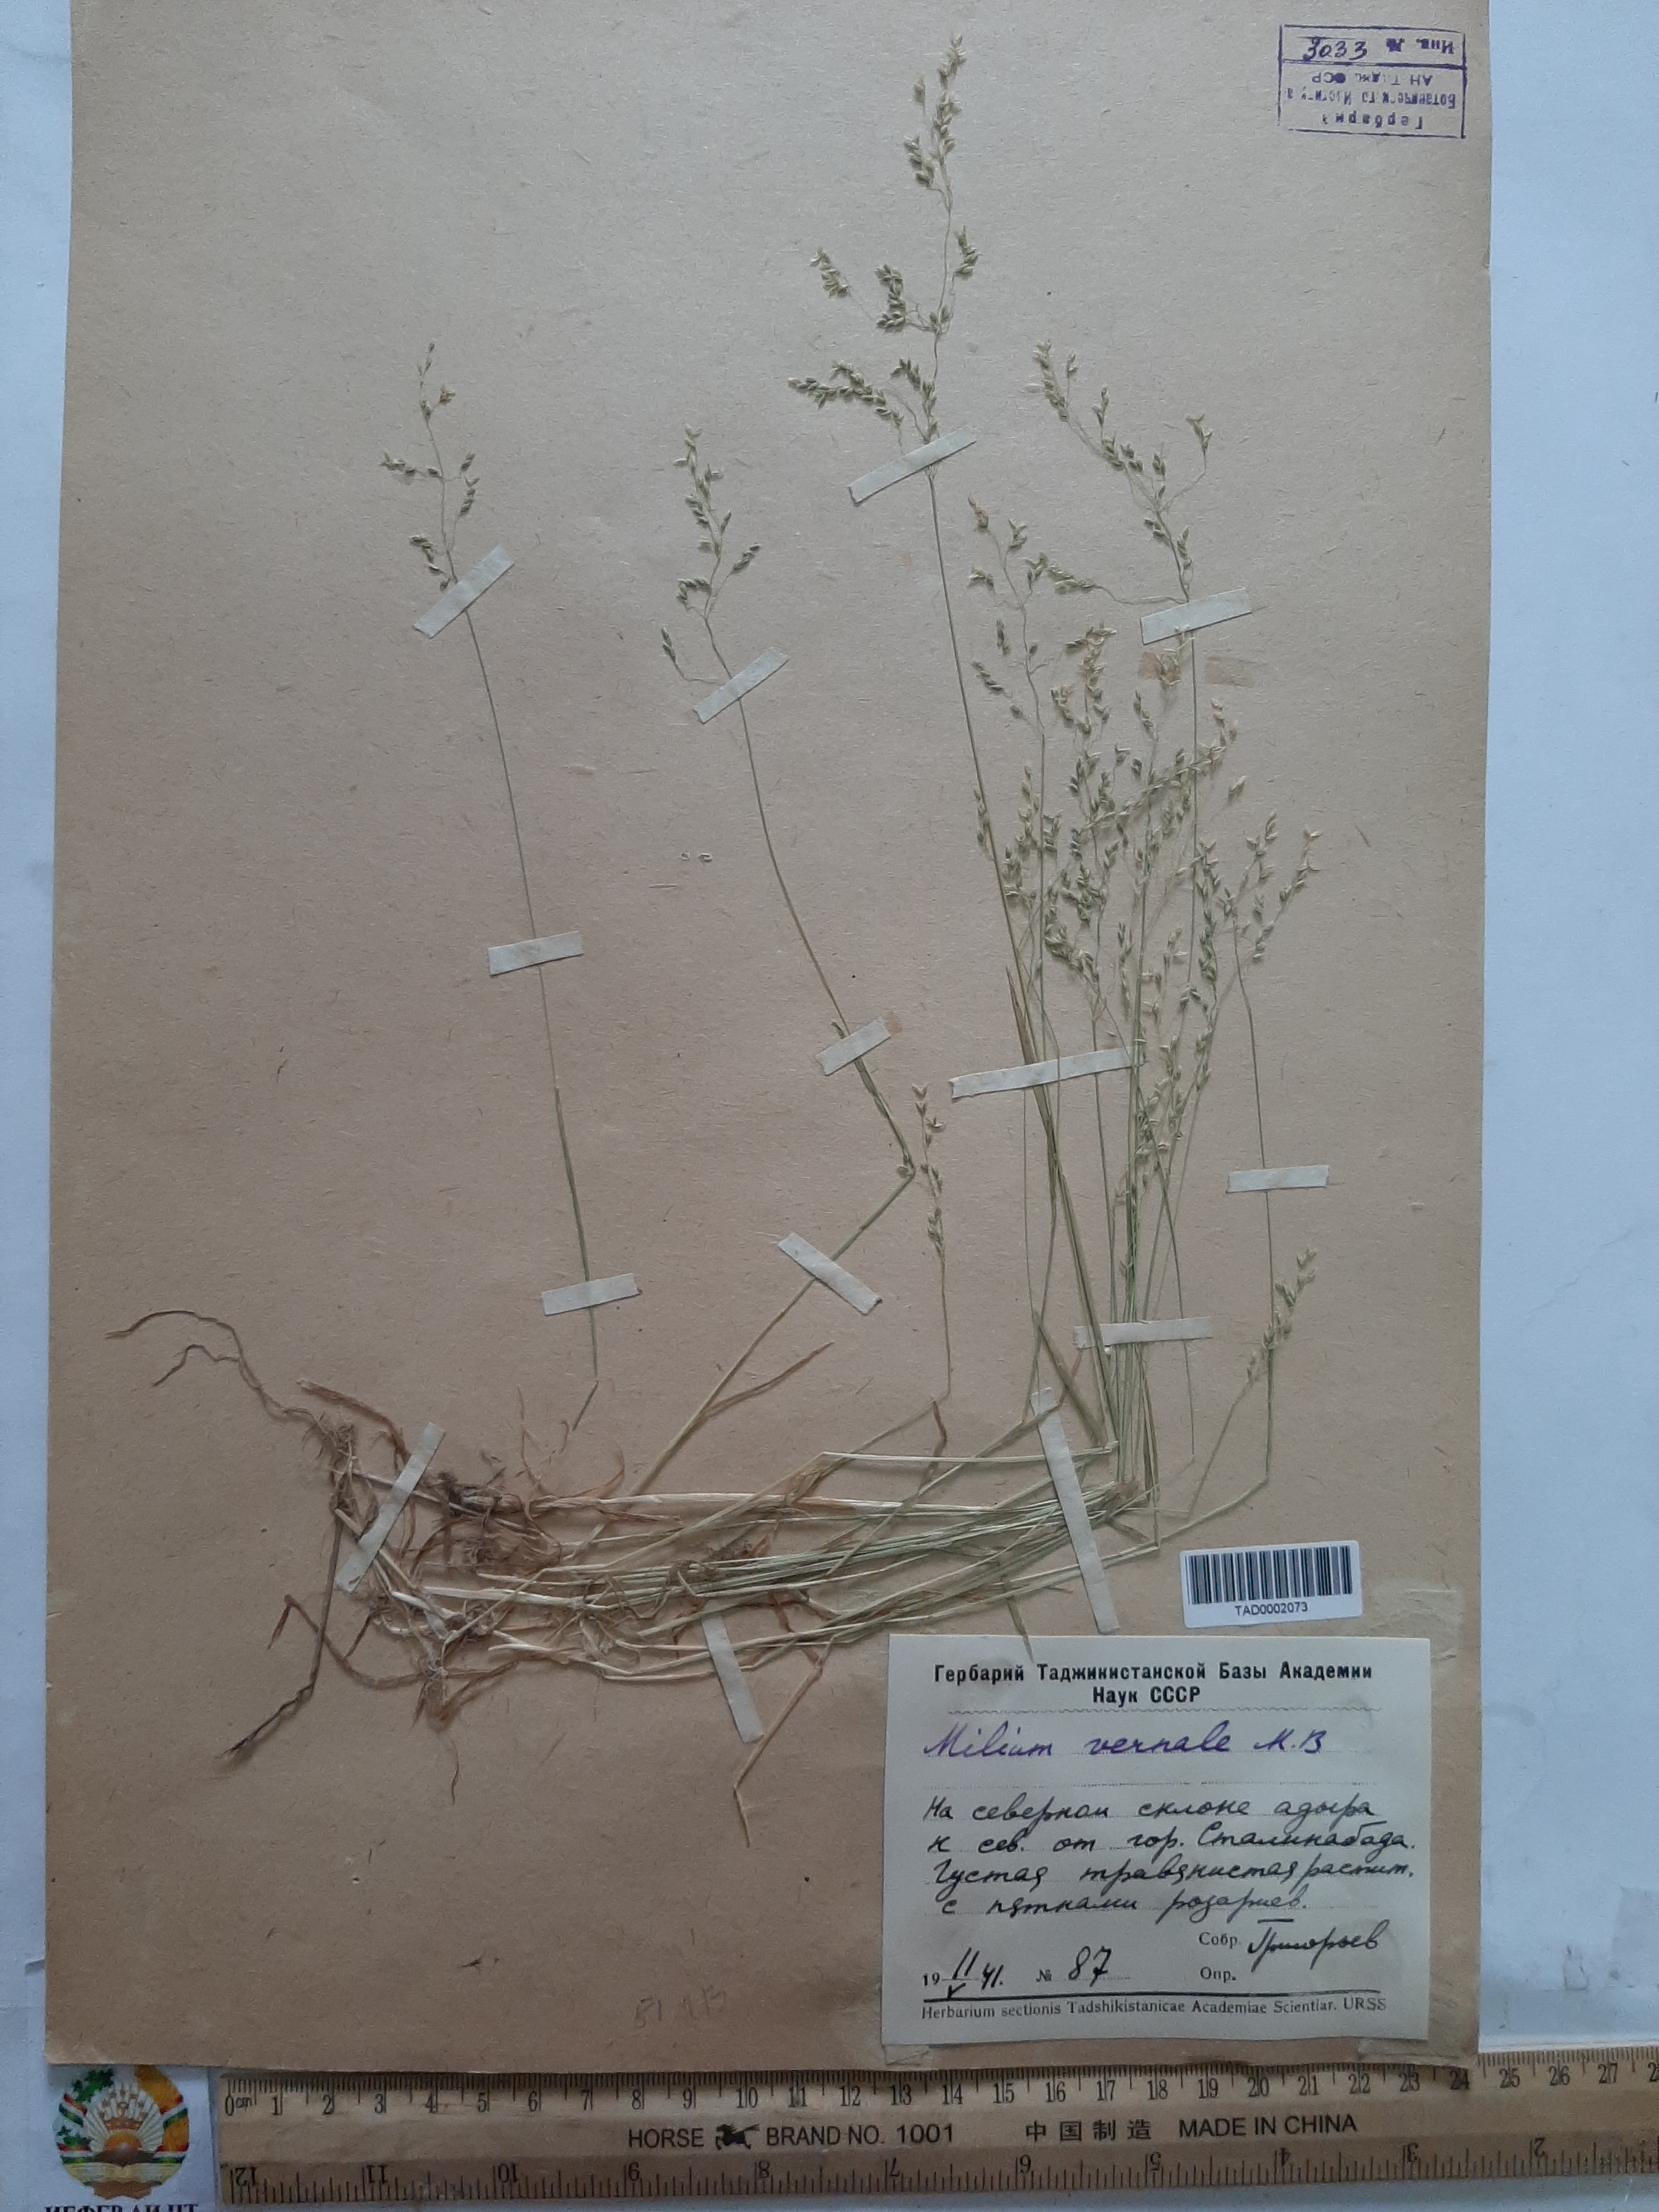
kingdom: Plantae
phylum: Tracheophyta
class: Liliopsida
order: Poales
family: Poaceae
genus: Milium
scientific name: Milium vernale
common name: Early millet
